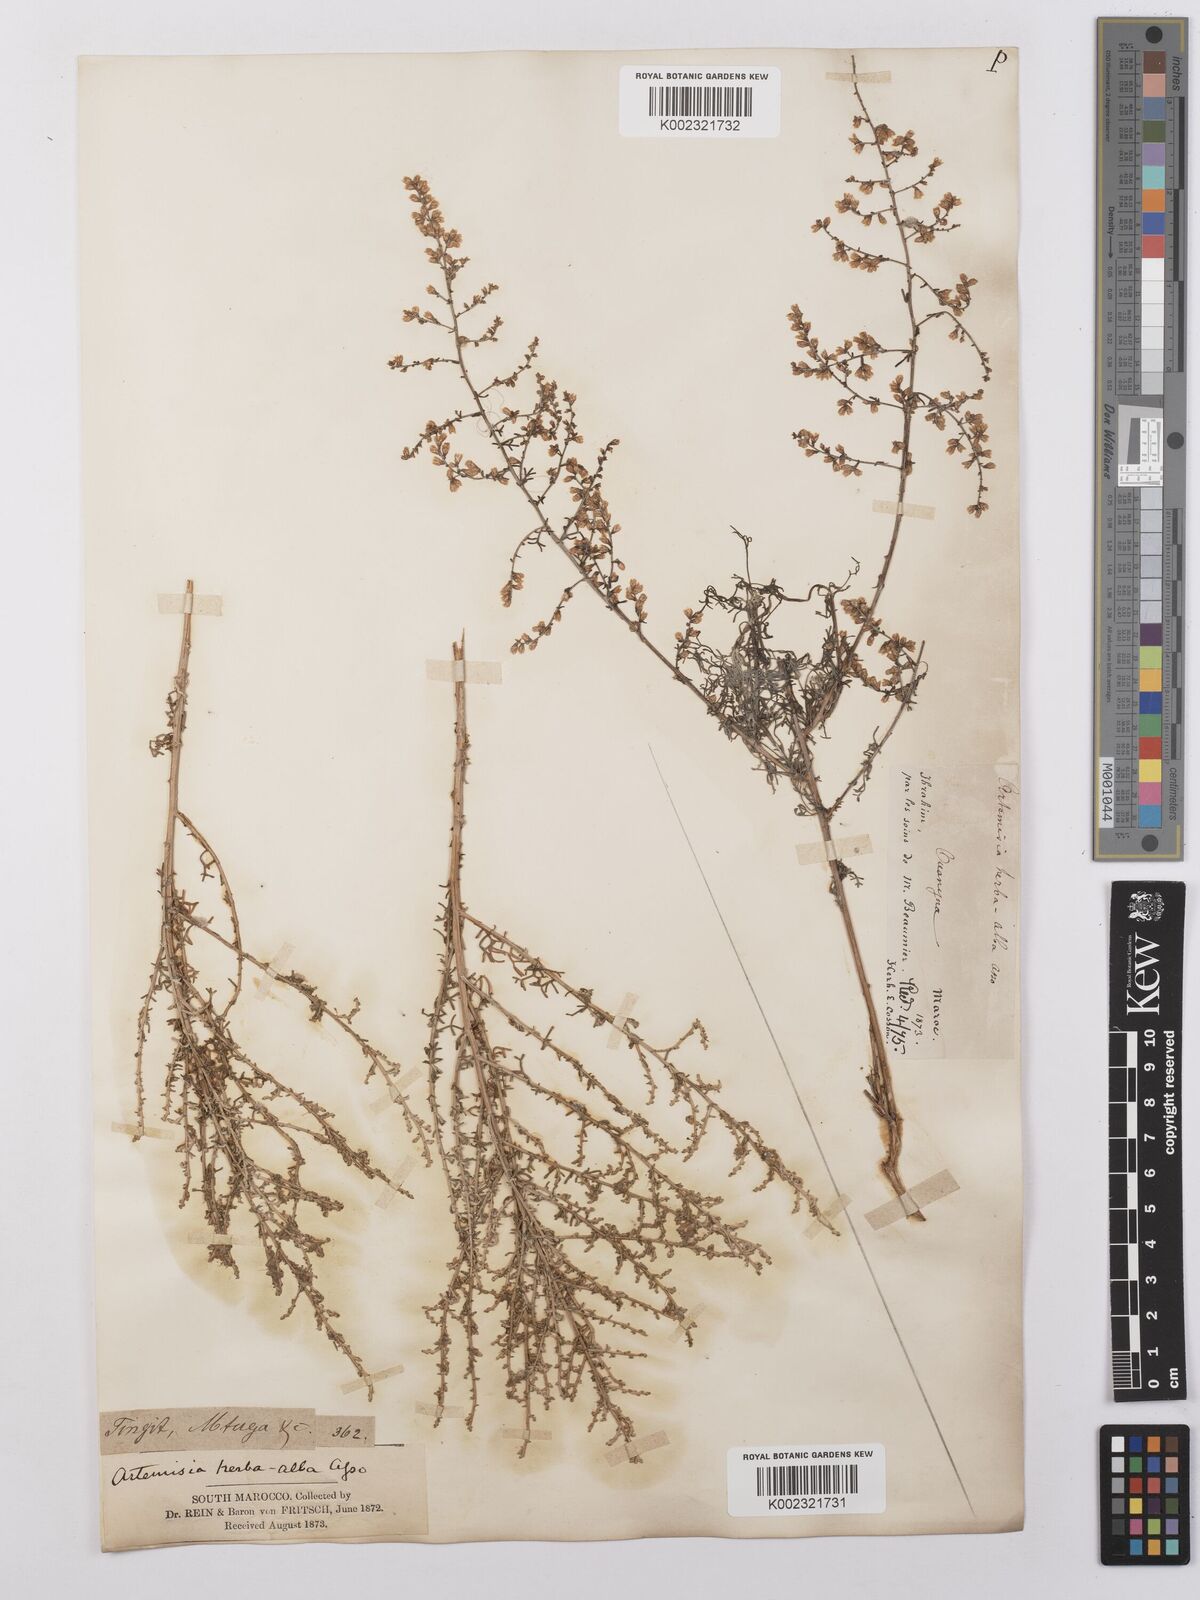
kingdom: Plantae
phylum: Tracheophyta
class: Magnoliopsida
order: Asterales
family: Asteraceae
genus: Artemisia
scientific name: Artemisia herba-alba
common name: White wormwood
